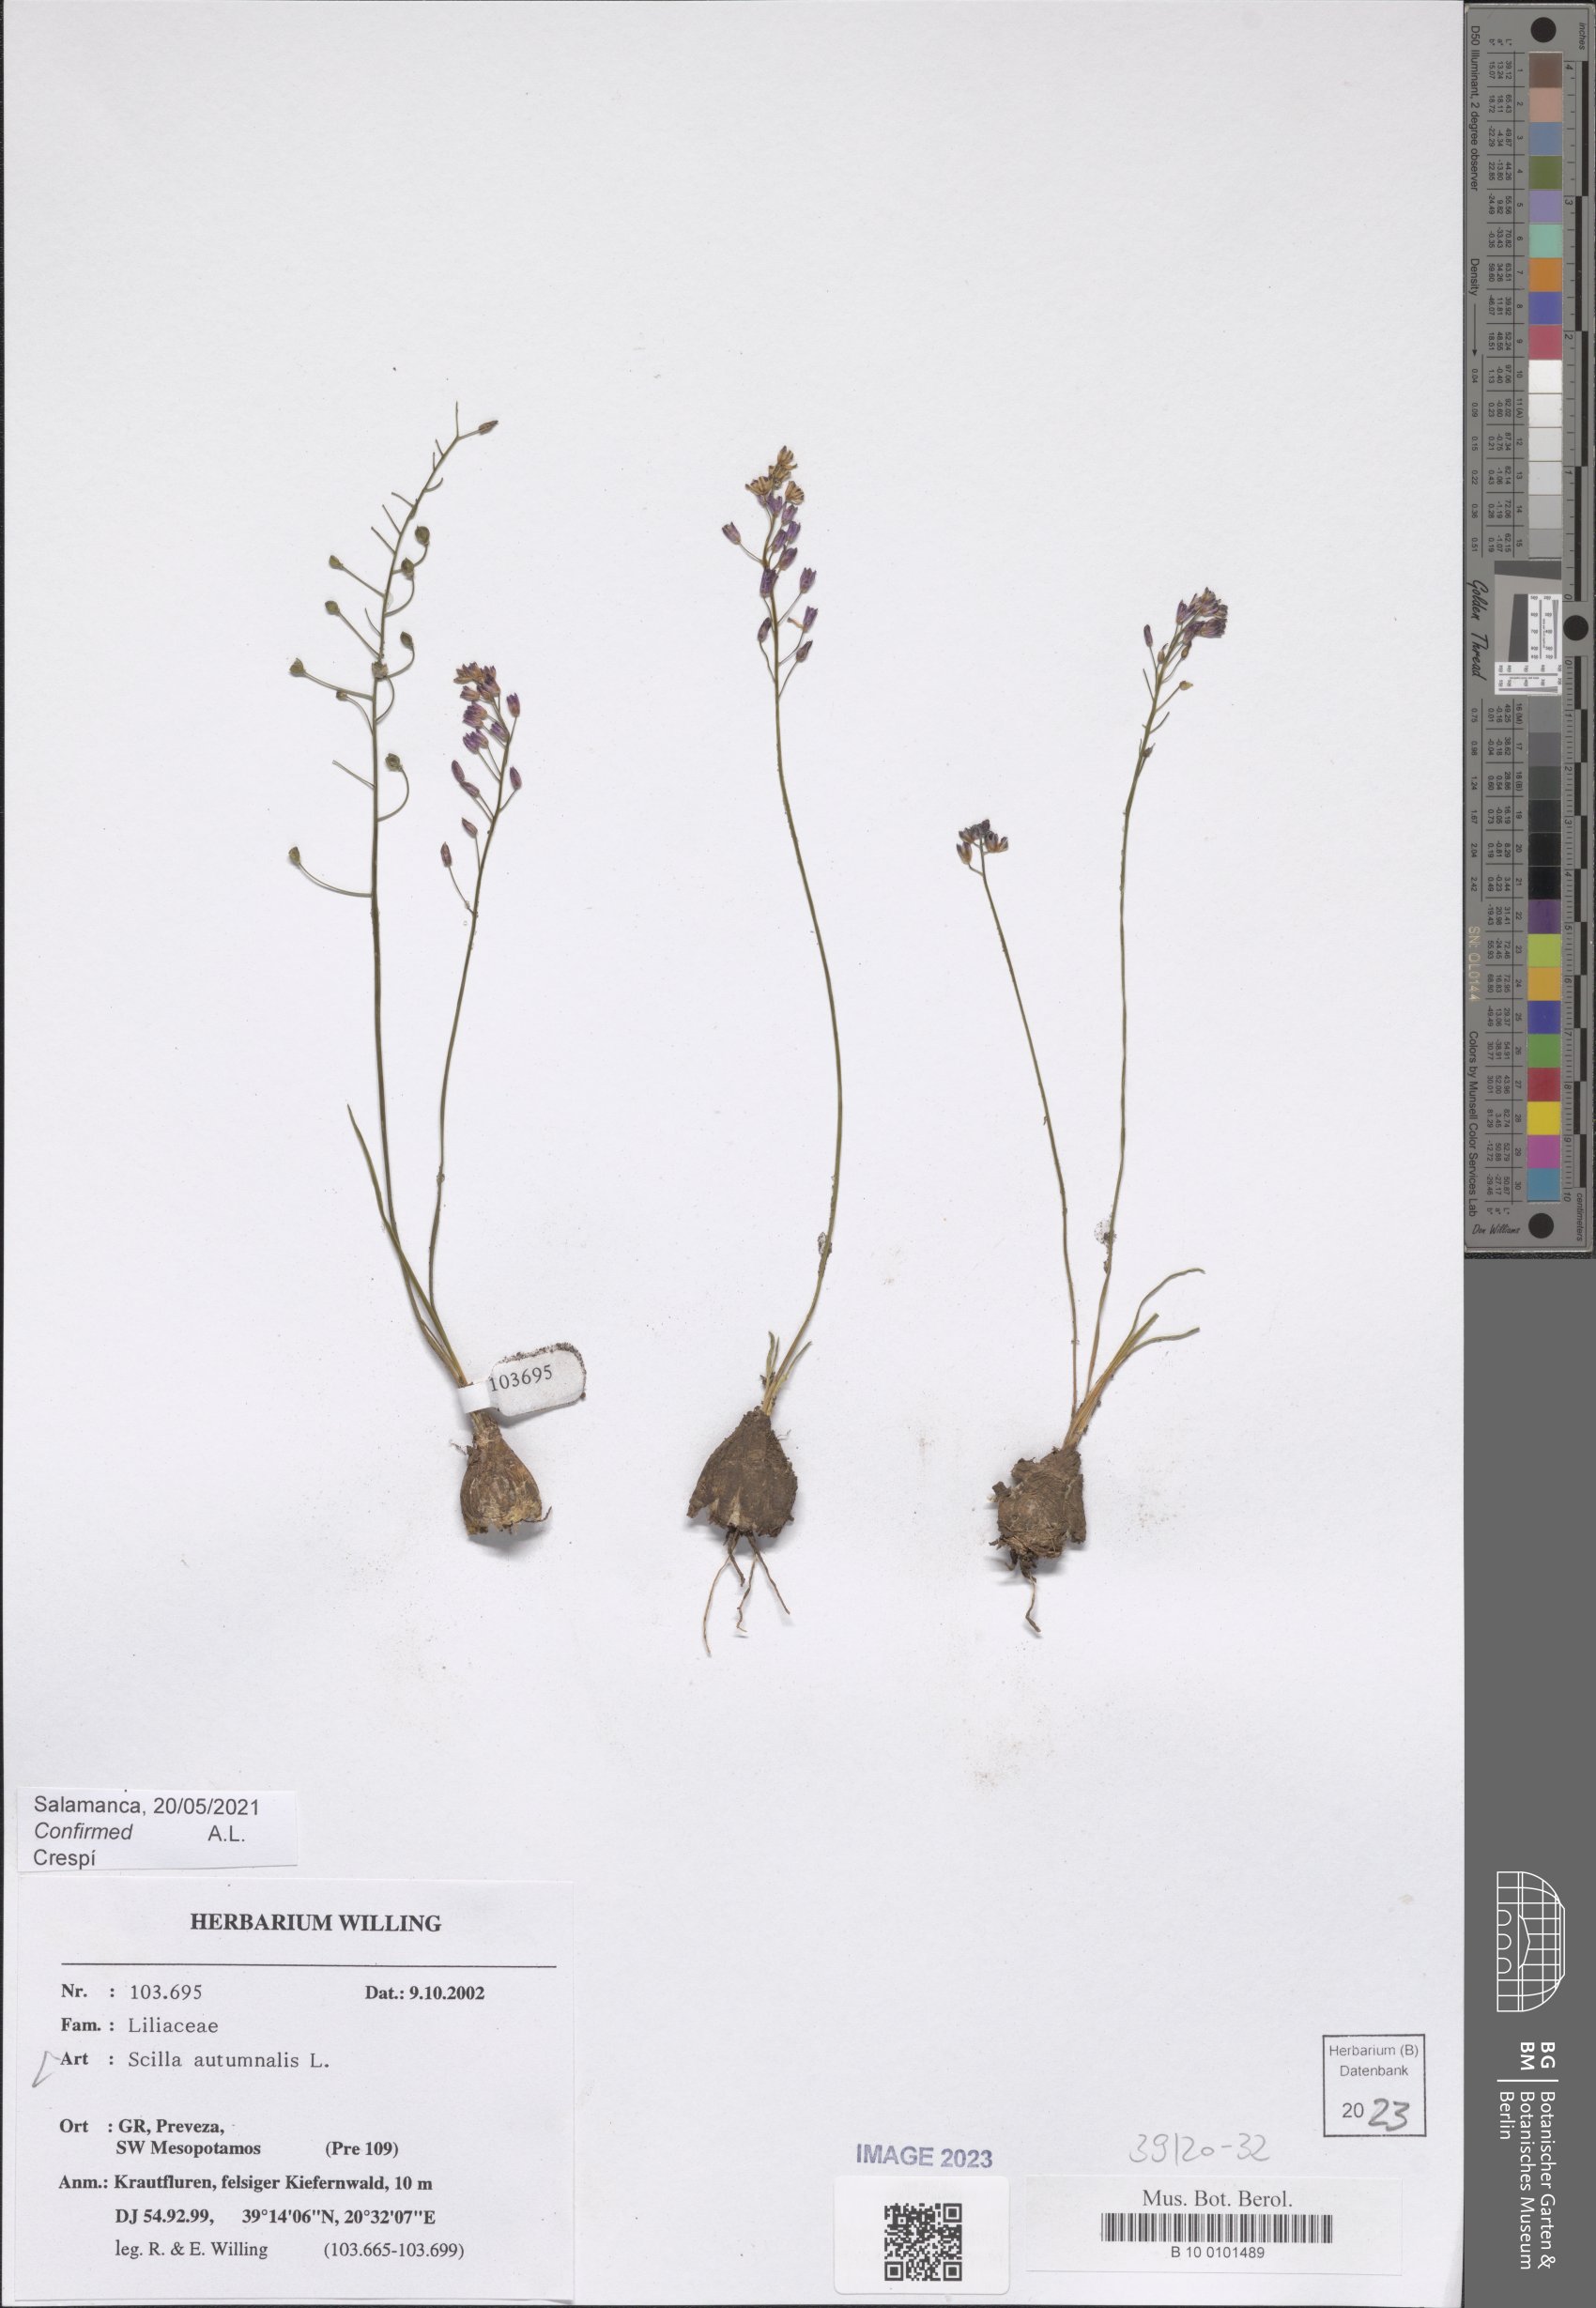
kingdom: Plantae
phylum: Tracheophyta
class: Liliopsida
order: Asparagales
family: Asparagaceae
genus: Prospero
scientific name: Prospero autumnale
